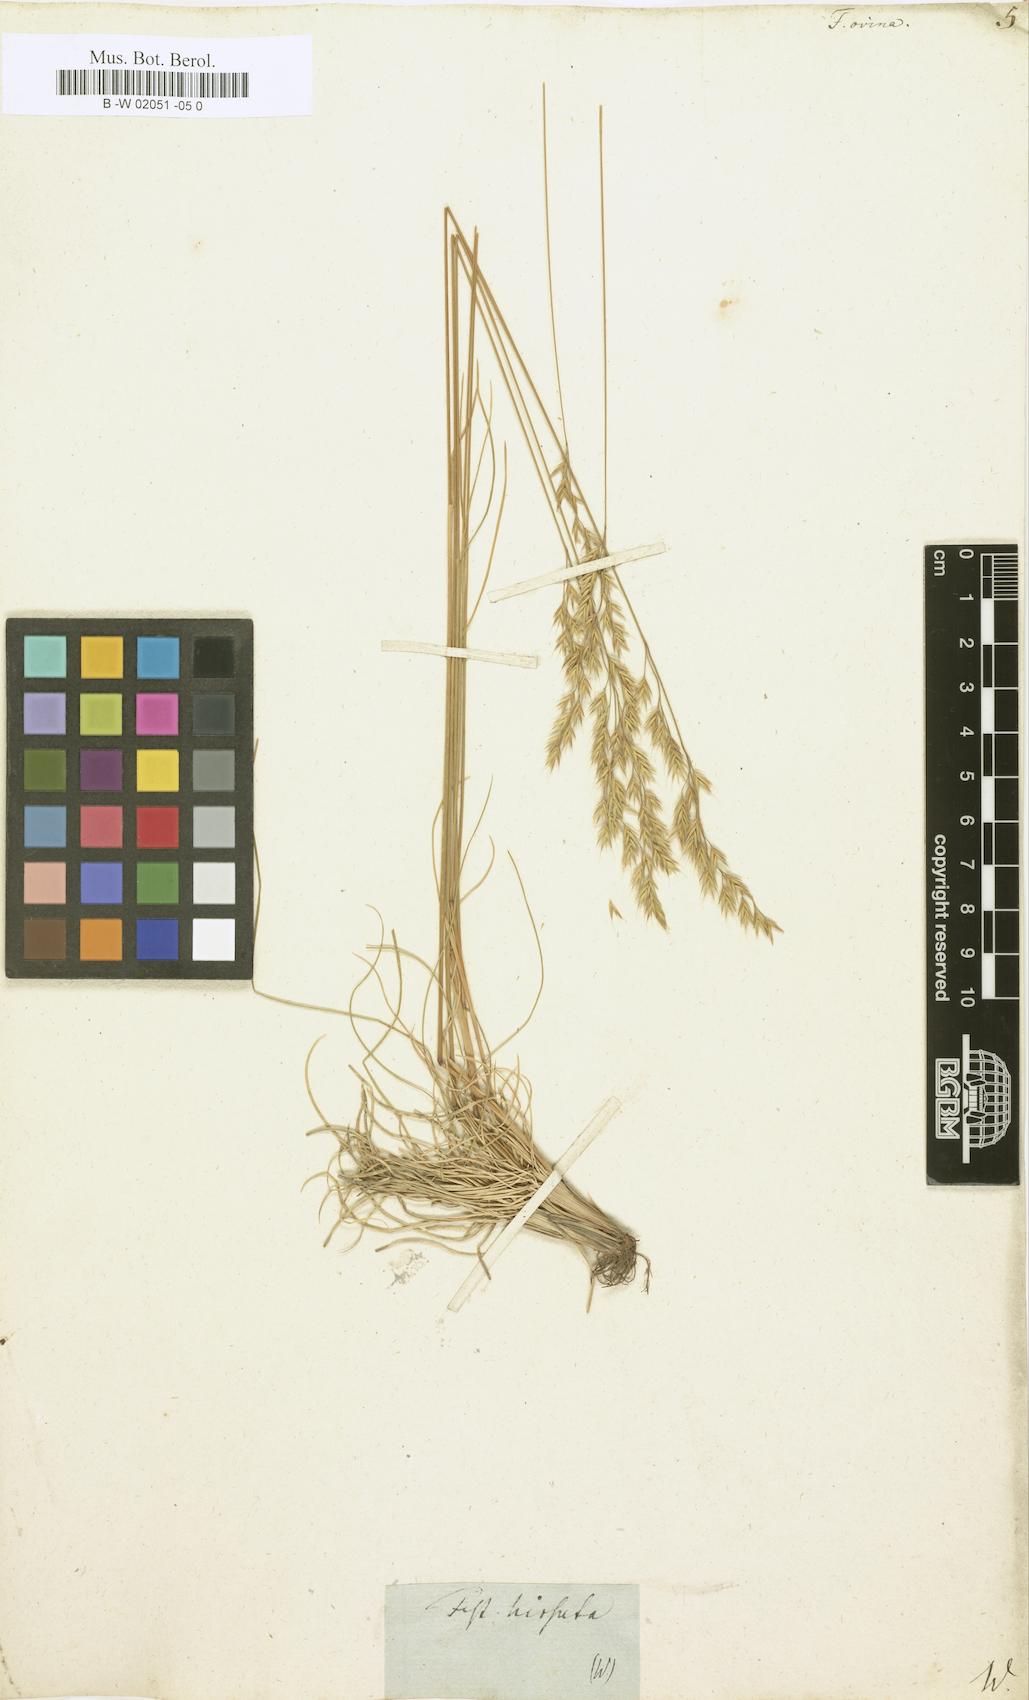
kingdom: Plantae
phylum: Tracheophyta
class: Liliopsida
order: Poales
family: Poaceae
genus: Festuca
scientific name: Festuca ovina
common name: Sheep fescue
